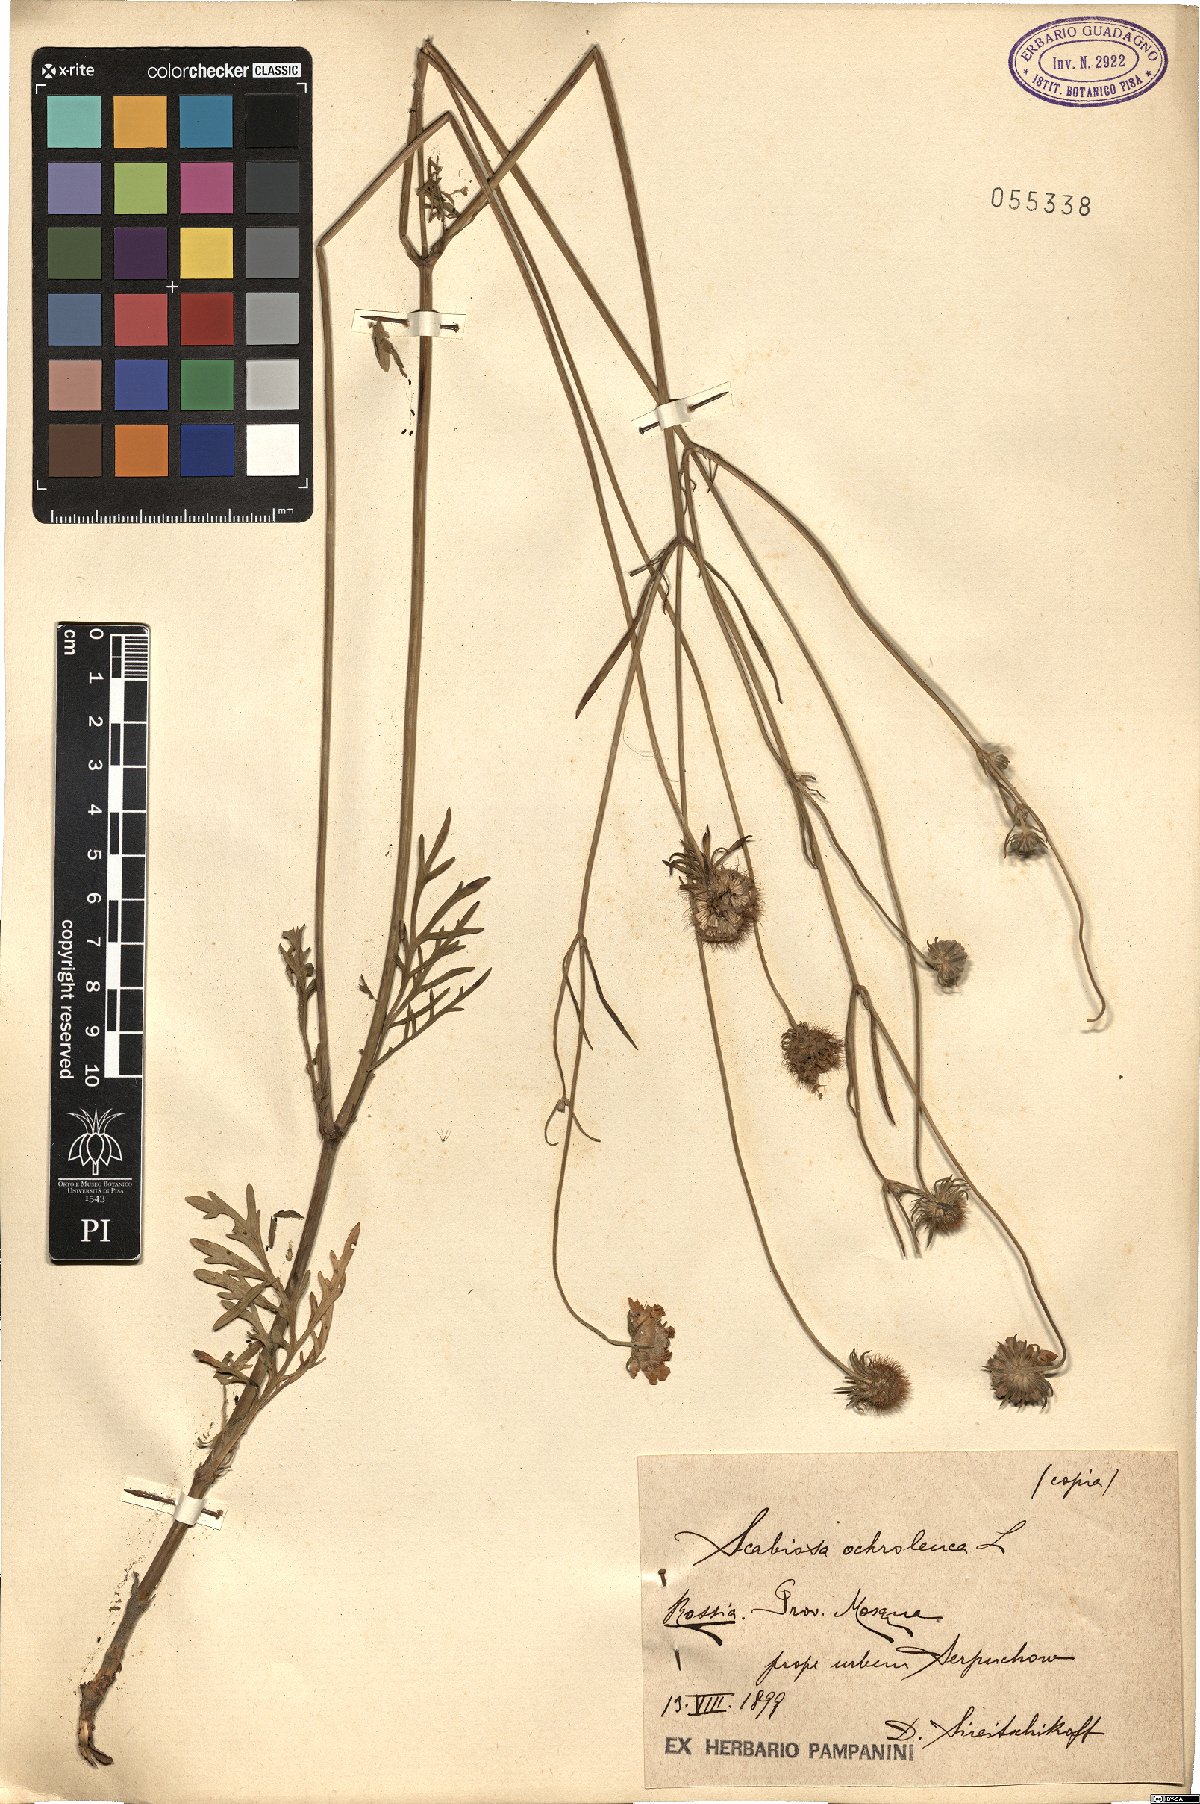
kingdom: Plantae
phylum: Tracheophyta
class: Magnoliopsida
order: Dipsacales
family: Caprifoliaceae
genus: Scabiosa
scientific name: Scabiosa ochroleuca
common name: Cream pincushions
